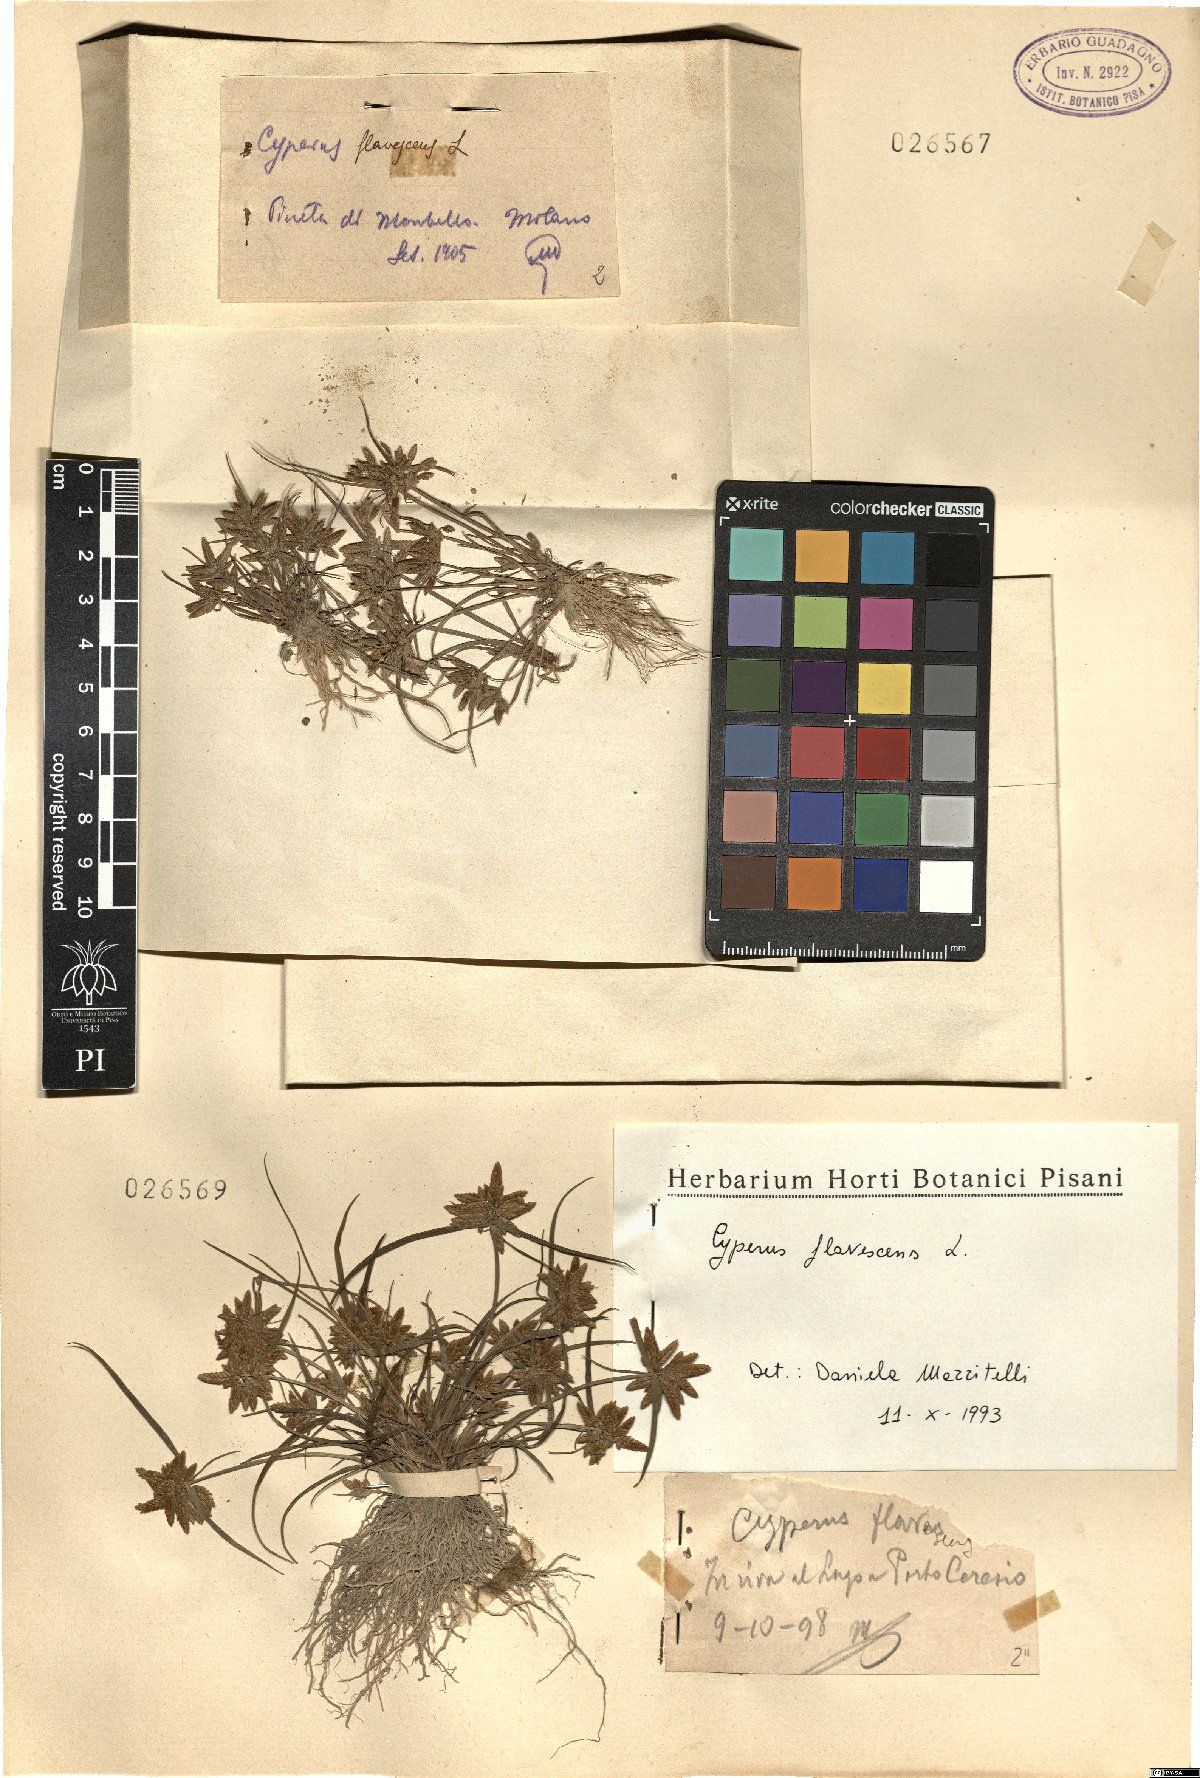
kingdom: Plantae
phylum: Tracheophyta
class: Liliopsida
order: Poales
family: Cyperaceae
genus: Cyperus
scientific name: Cyperus flavescens
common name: Yellow galingale
